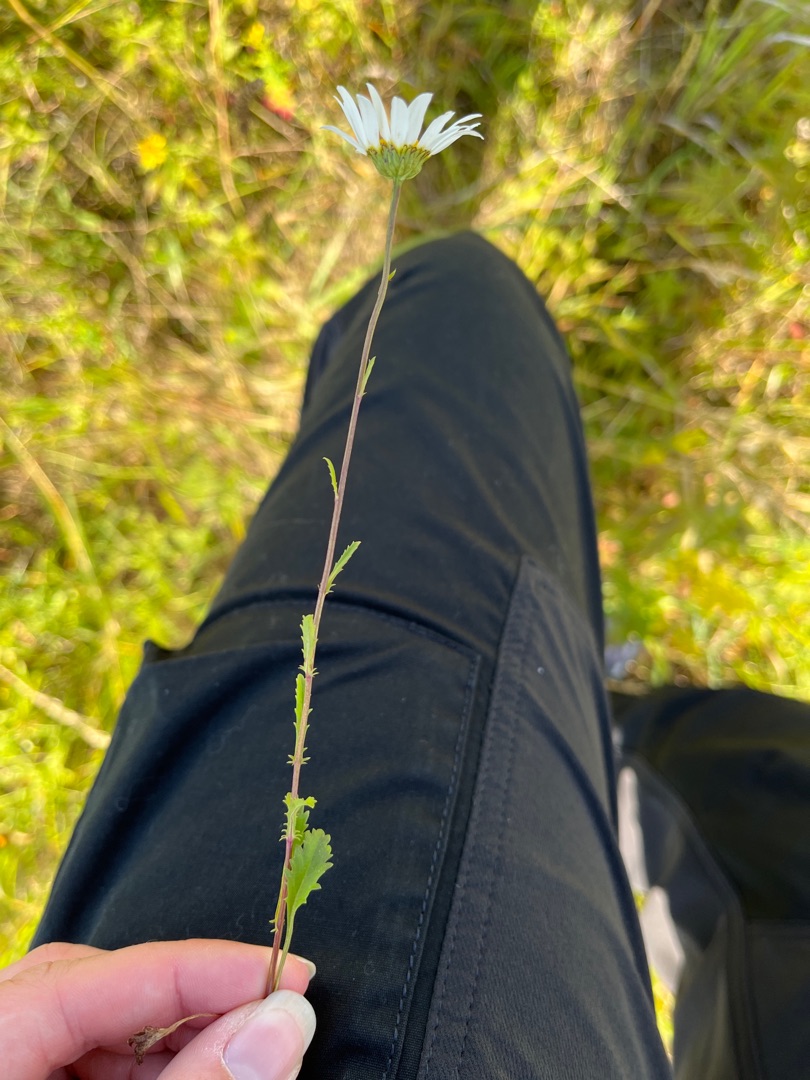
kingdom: Plantae
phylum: Tracheophyta
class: Magnoliopsida
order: Asterales
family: Asteraceae
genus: Leucanthemum
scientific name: Leucanthemum vulgare
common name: Hvid okseøje
